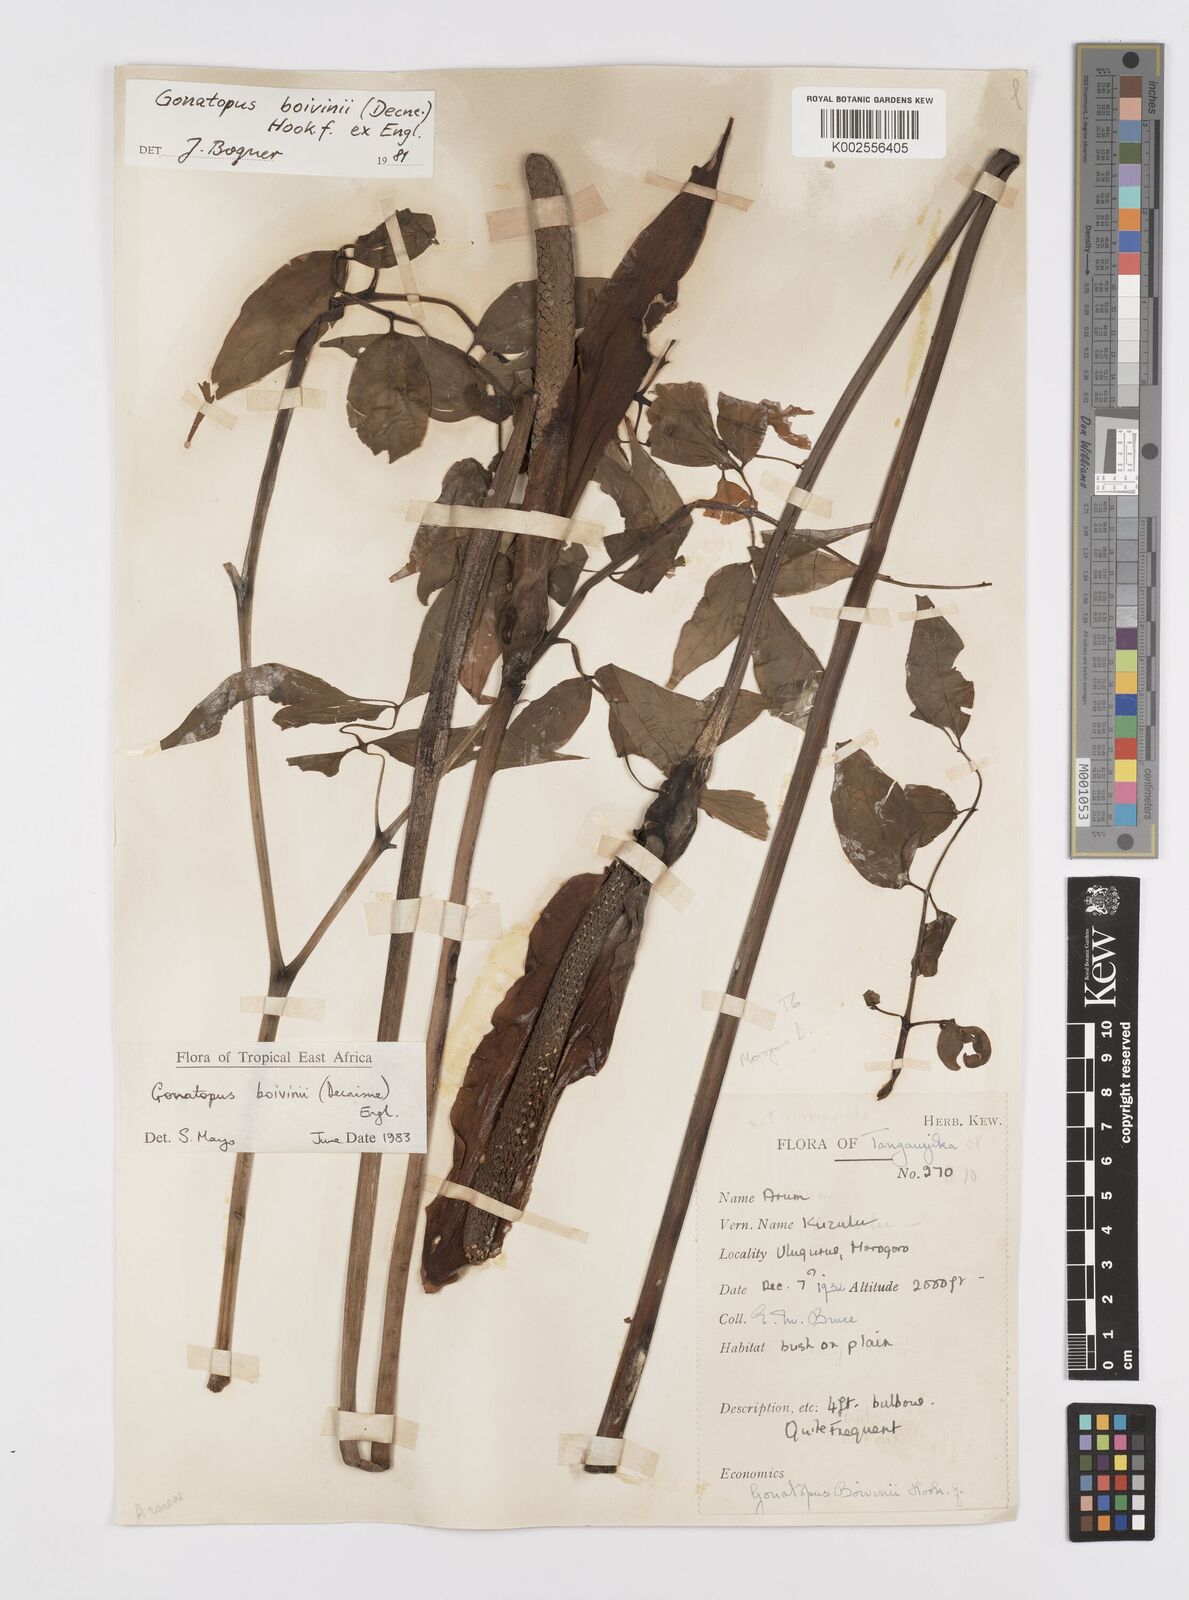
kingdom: Plantae
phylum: Tracheophyta
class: Liliopsida
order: Alismatales
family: Araceae
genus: Gonatopus
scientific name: Gonatopus boivinii
